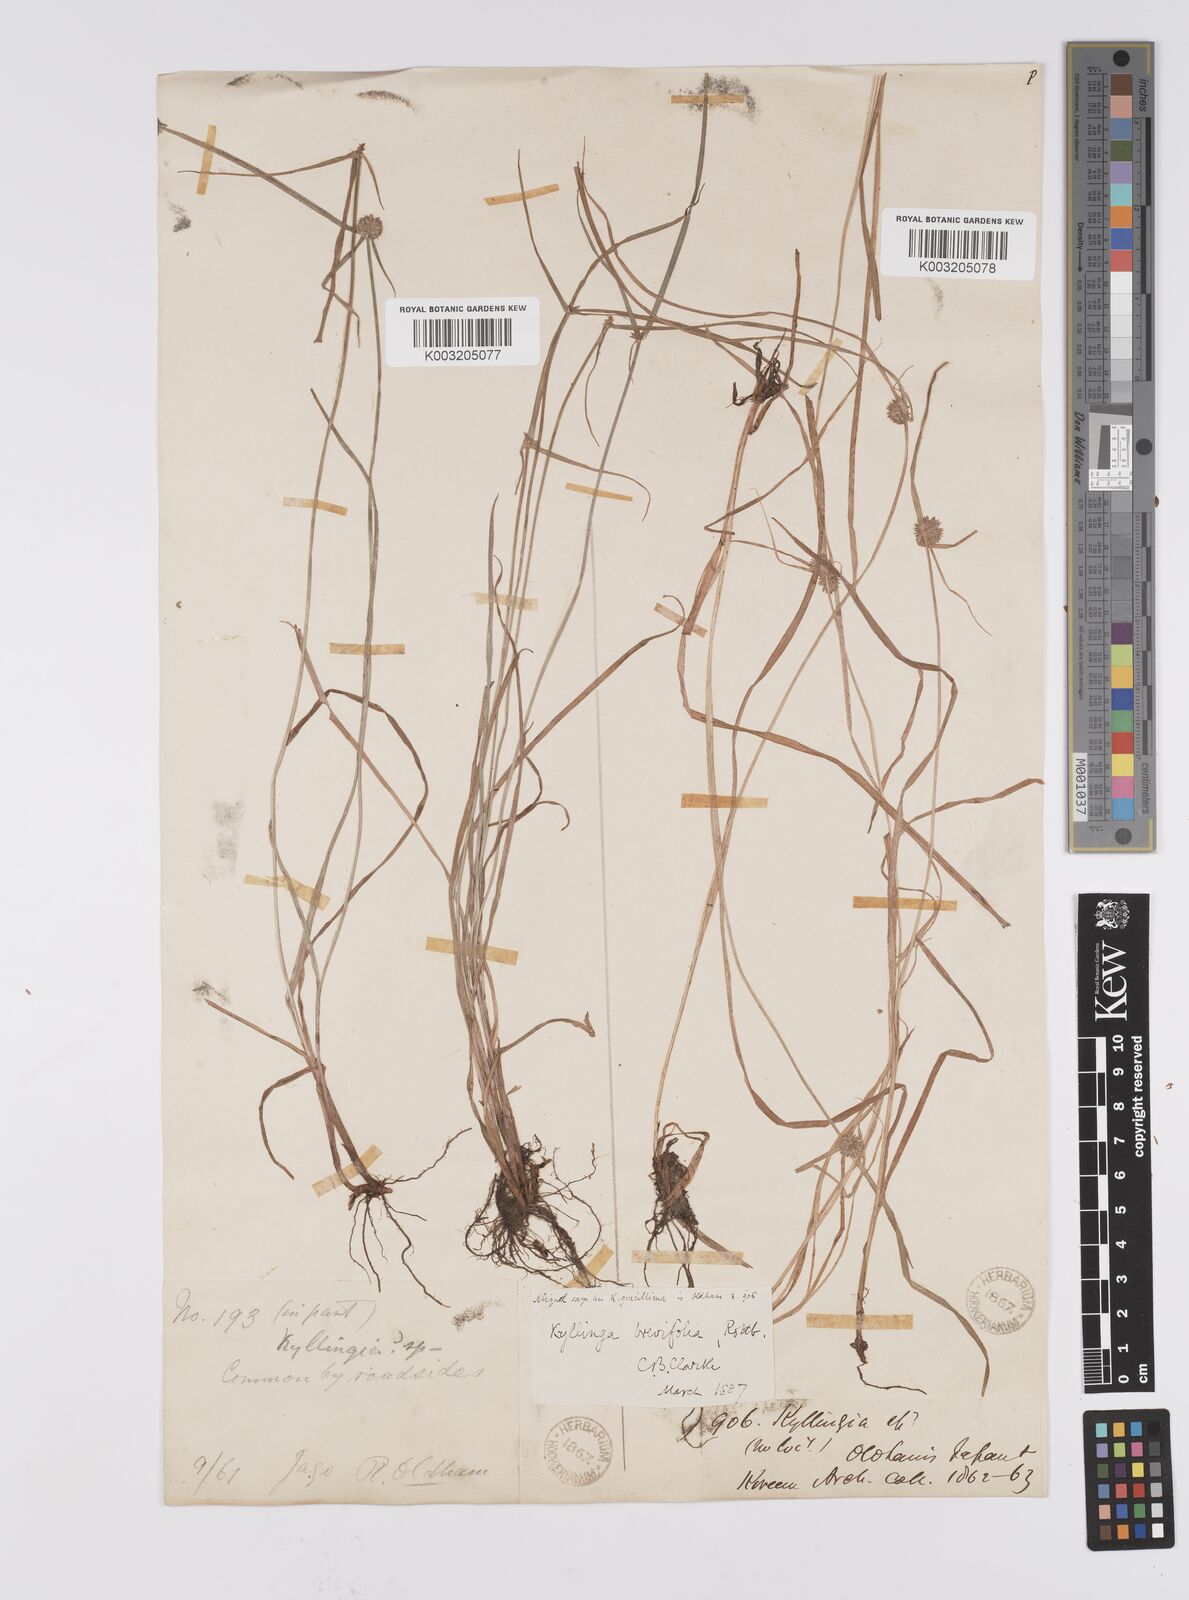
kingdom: Plantae
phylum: Tracheophyta
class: Liliopsida
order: Poales
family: Cyperaceae
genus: Cyperus
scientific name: Cyperus brevifolius
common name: Globe kyllinga
